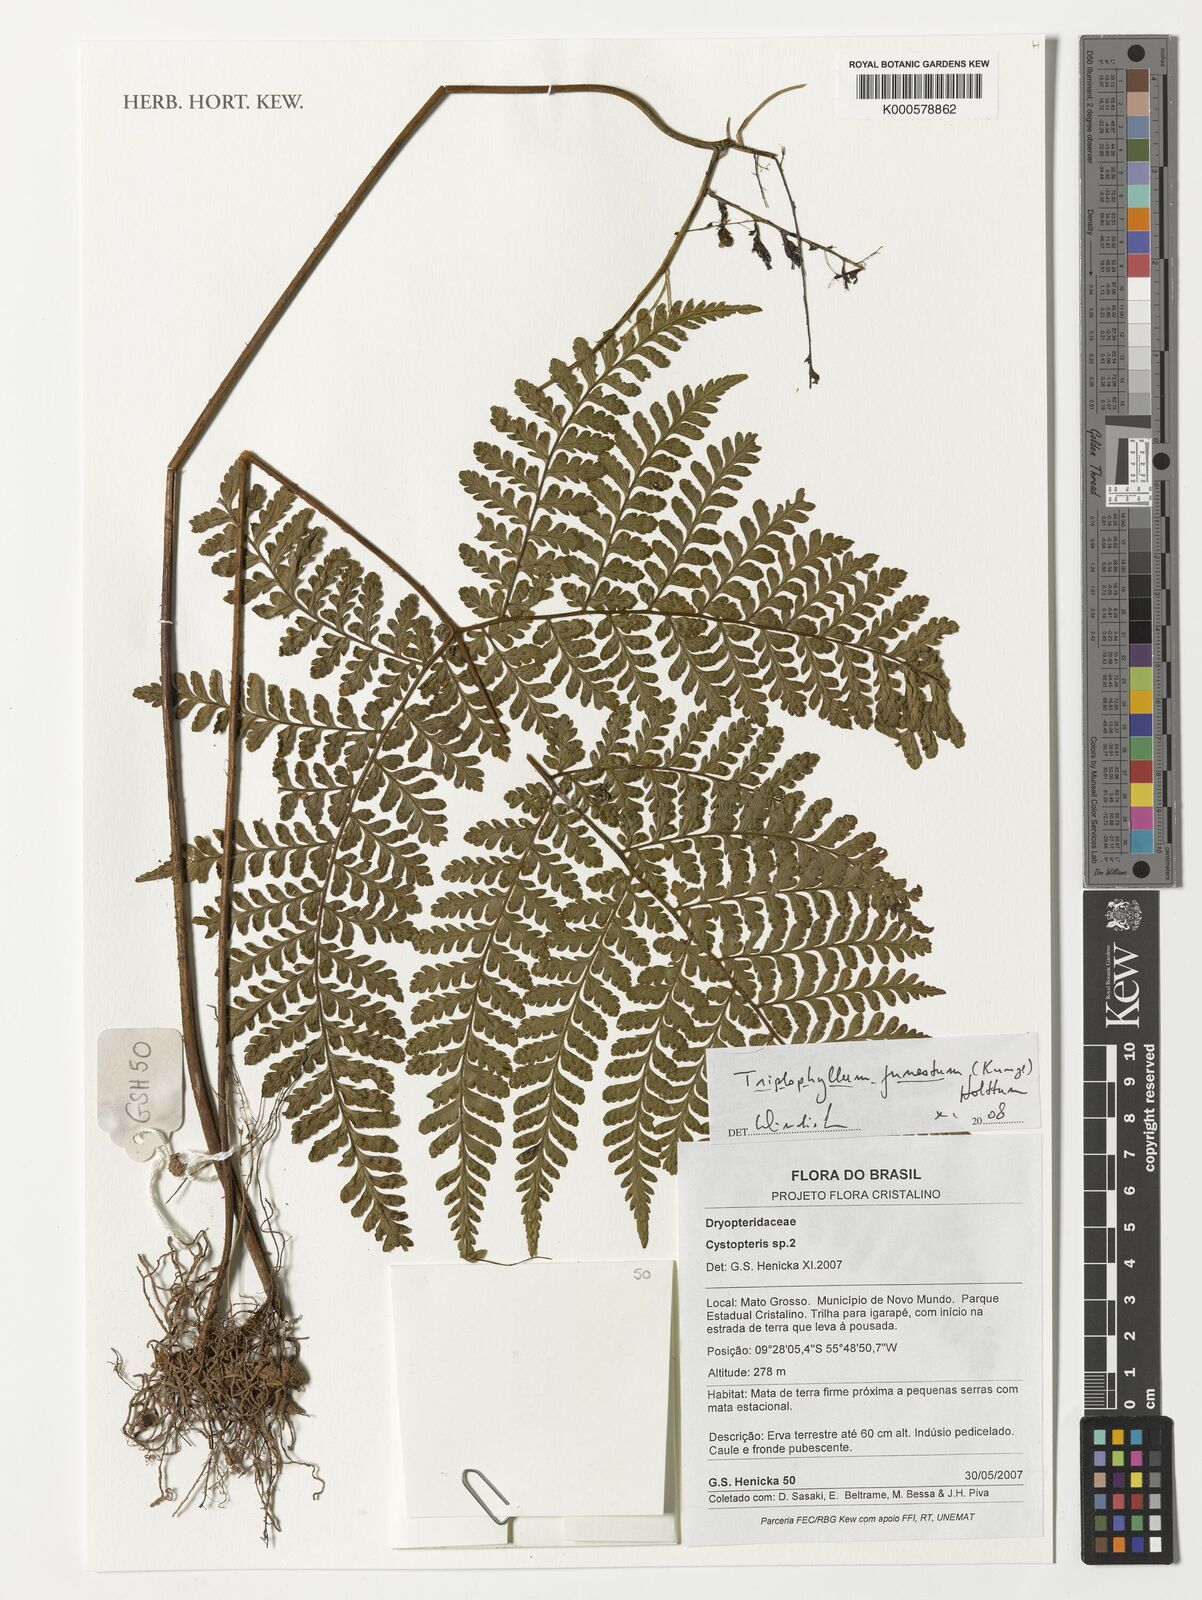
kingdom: Plantae
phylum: Tracheophyta
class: Polypodiopsida
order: Polypodiales
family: Tectariaceae
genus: Triplophyllum
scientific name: Triplophyllum funestum
